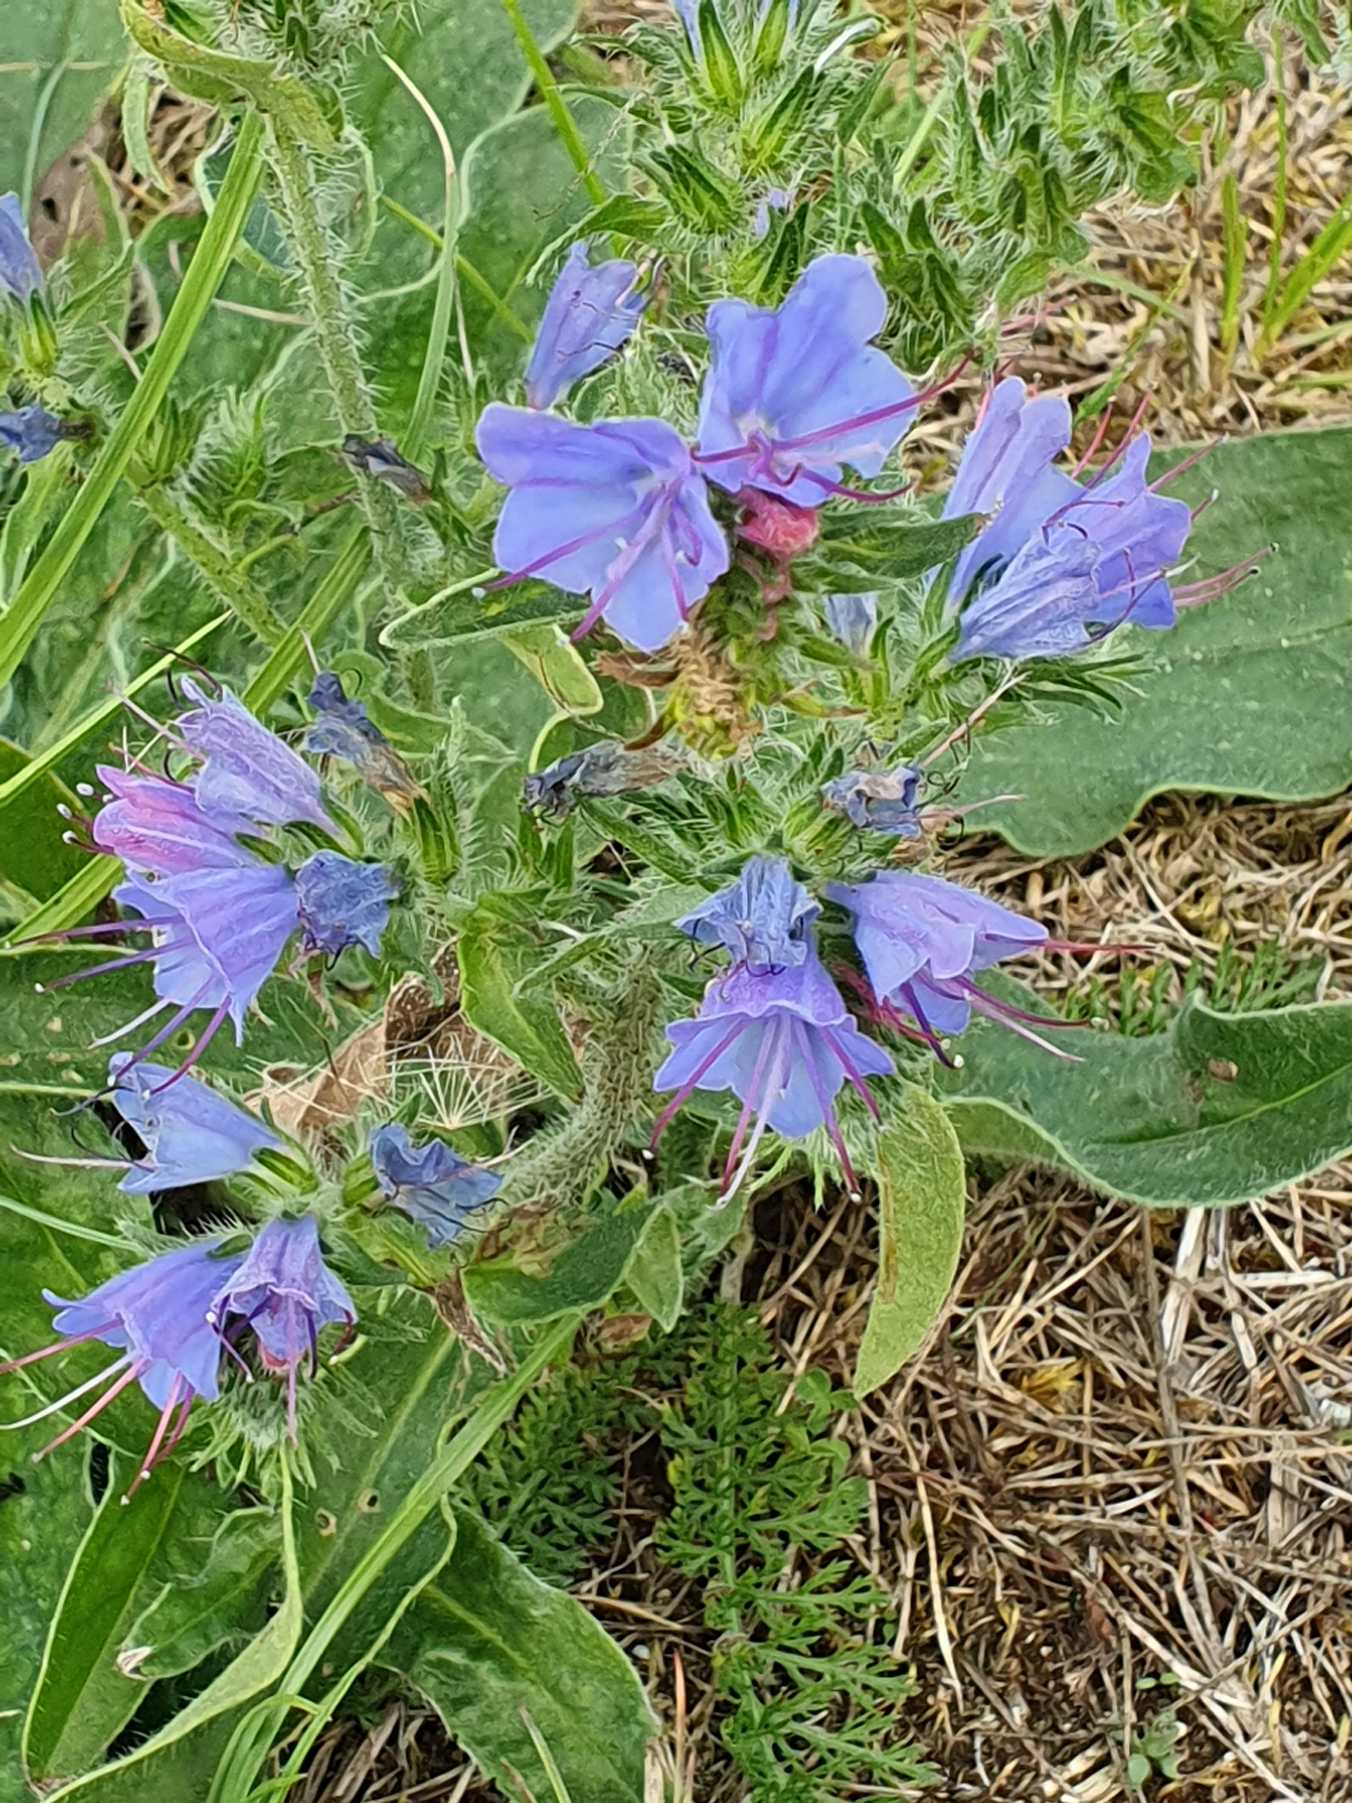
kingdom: Plantae
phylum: Tracheophyta
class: Magnoliopsida
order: Boraginales
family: Boraginaceae
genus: Echium
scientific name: Echium vulgare
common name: Slangehoved
